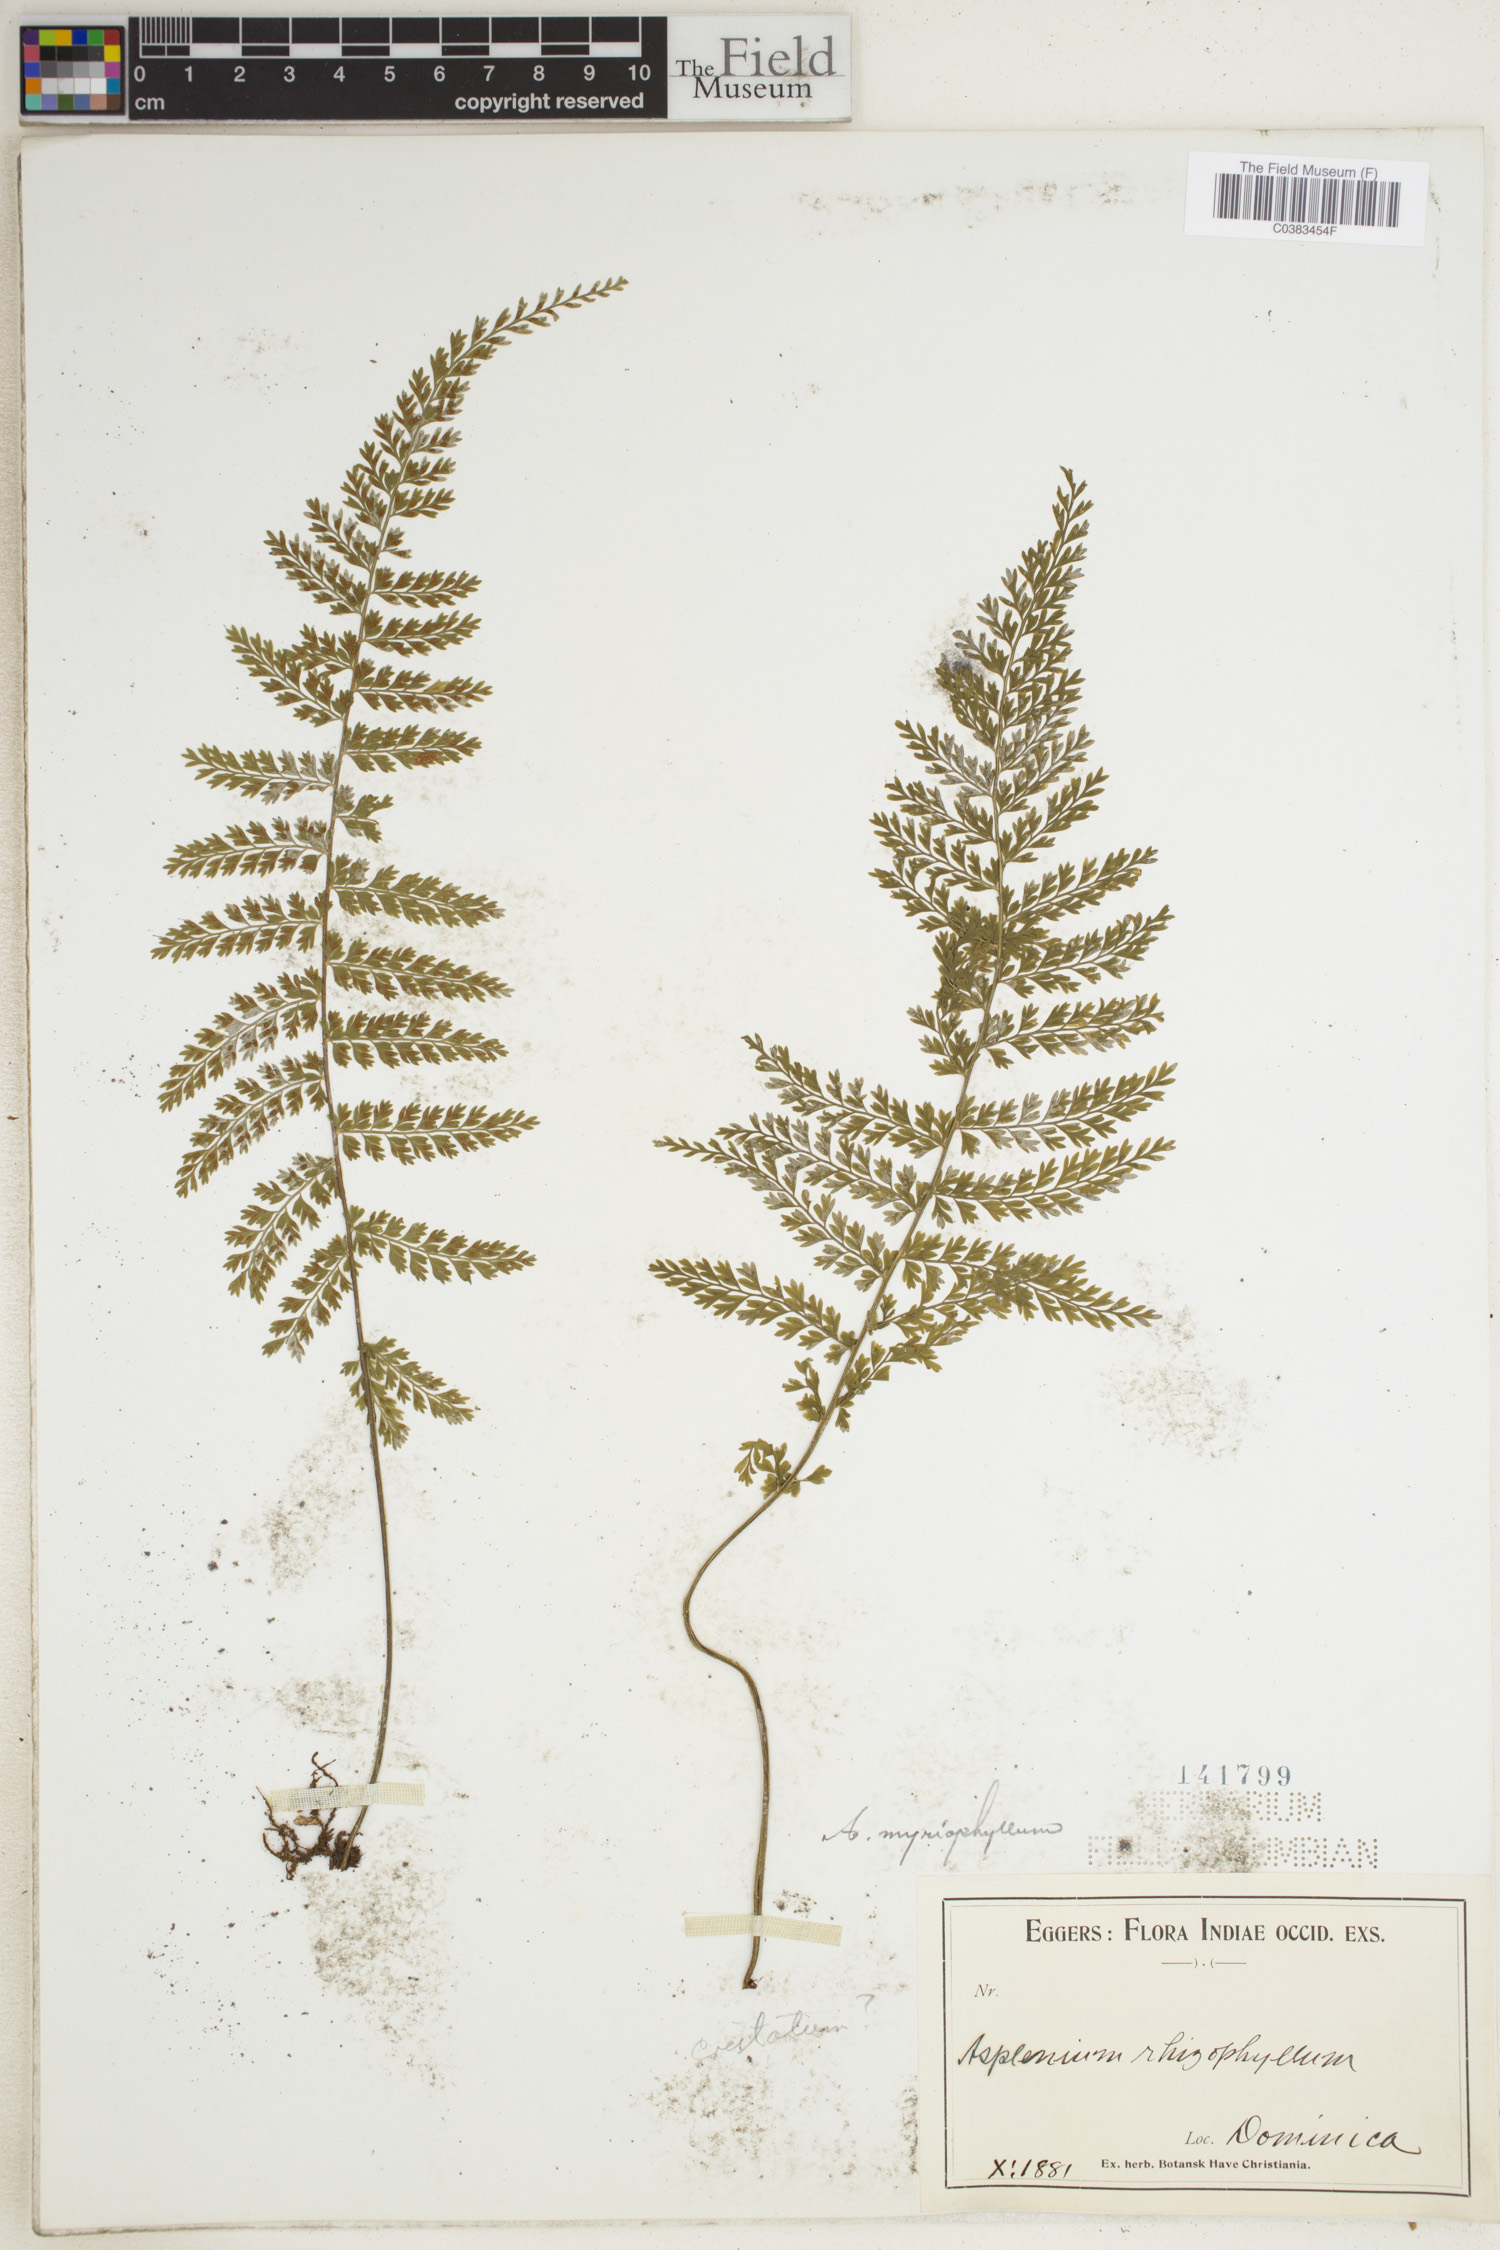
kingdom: Plantae
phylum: Tracheophyta
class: Polypodiopsida
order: Polypodiales
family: Aspleniaceae
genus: Asplenium
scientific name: Asplenium myriophyllum
